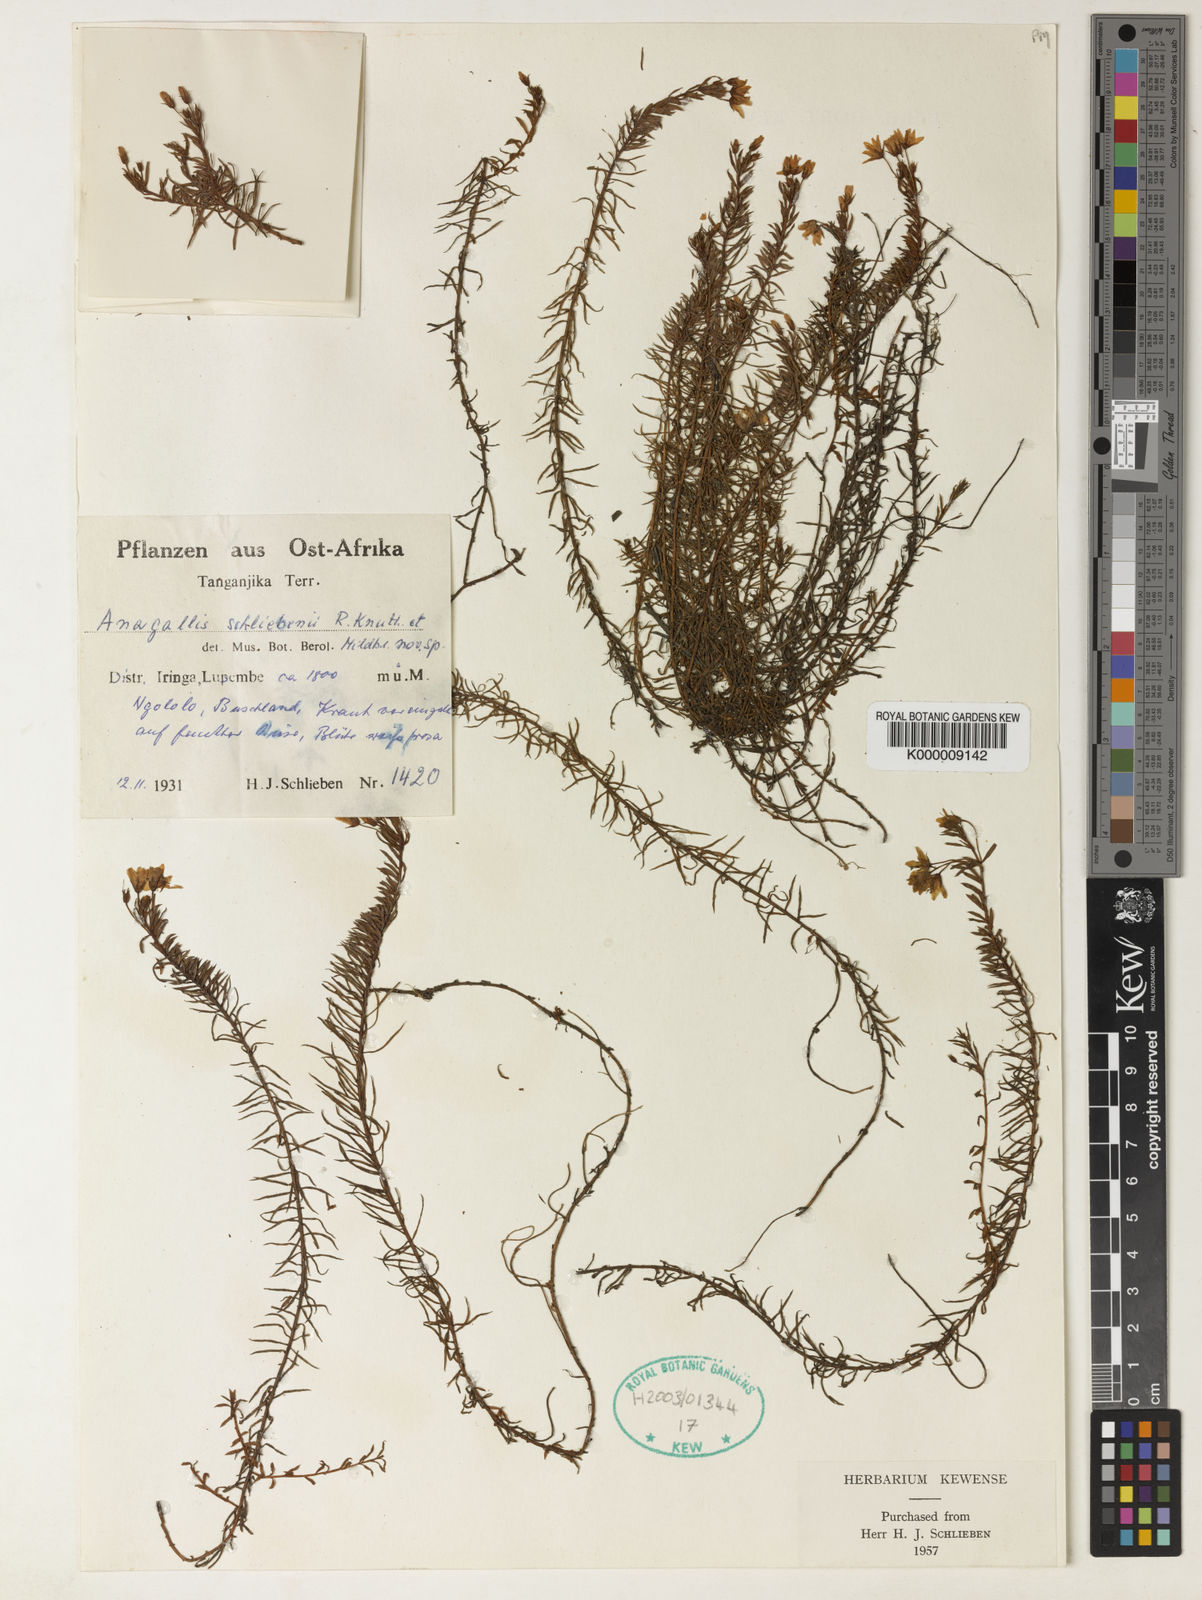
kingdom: Plantae
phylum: Tracheophyta
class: Magnoliopsida
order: Ericales
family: Primulaceae
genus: Lysimachia
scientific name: Lysimachia schliebenii
